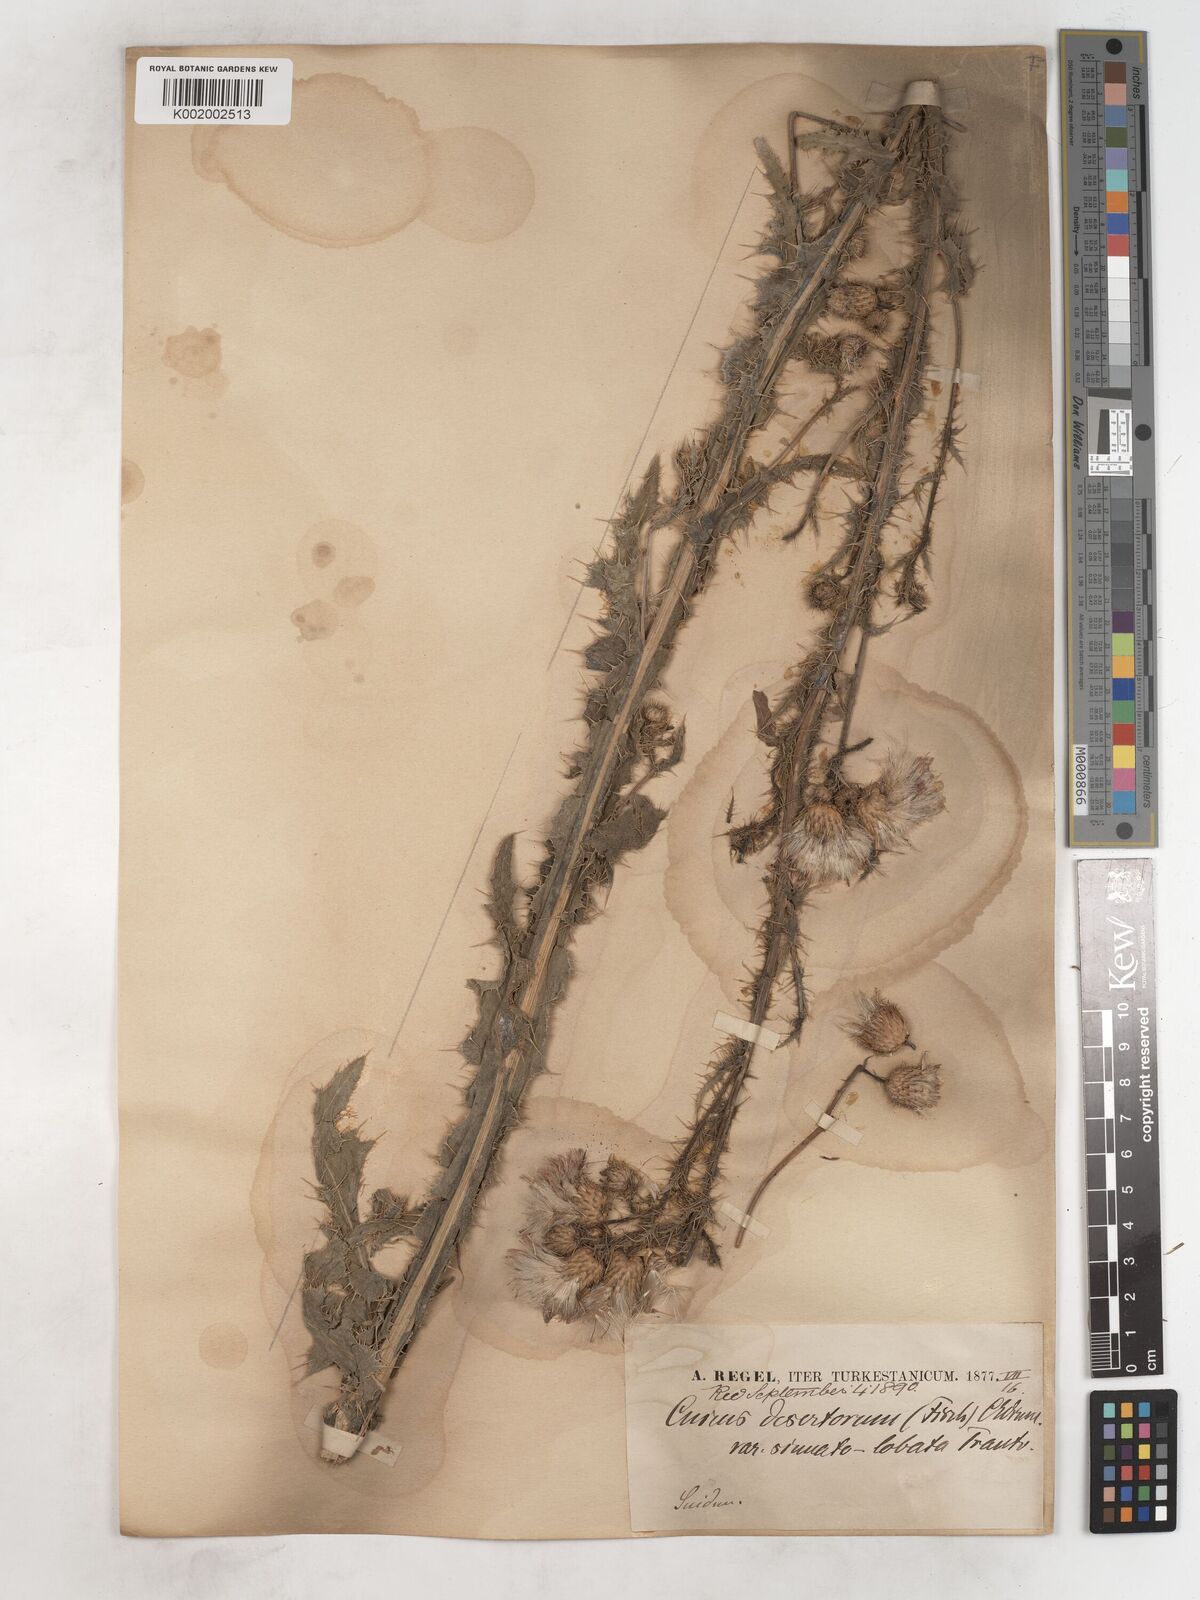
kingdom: Plantae
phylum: Tracheophyta
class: Magnoliopsida
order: Asterales
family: Asteraceae
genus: Cirsium
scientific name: Cirsium alatum
